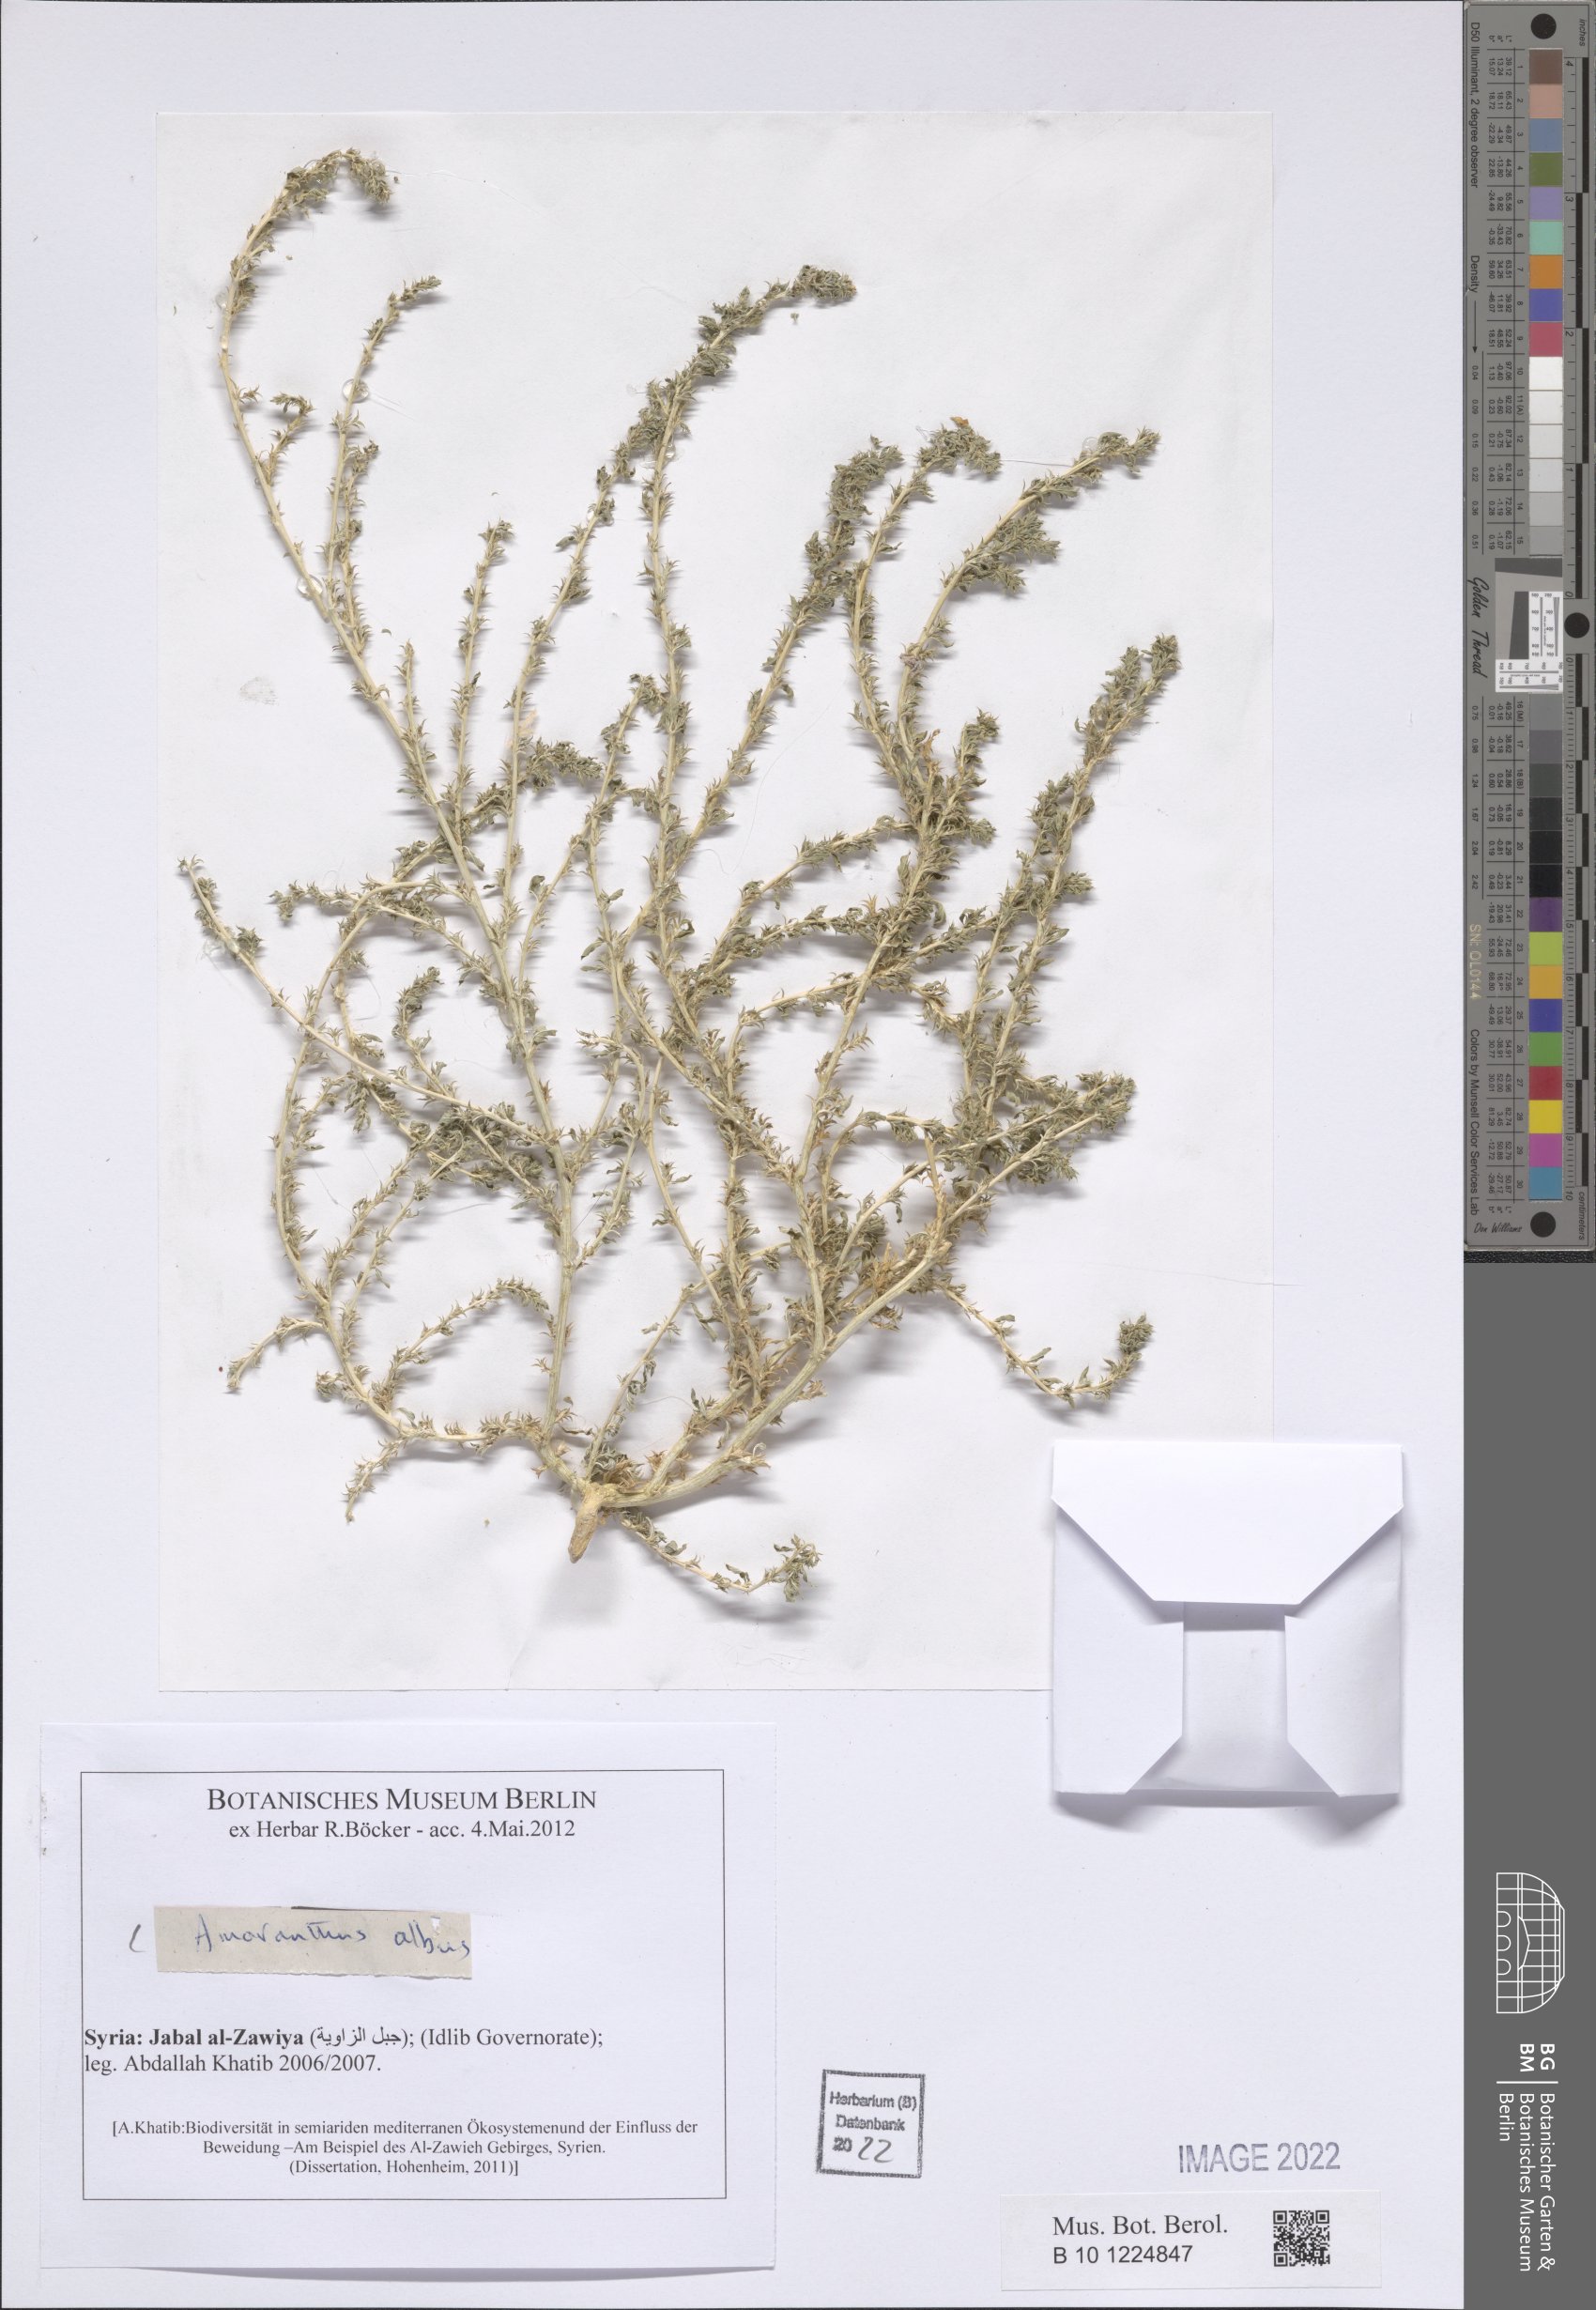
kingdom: Plantae
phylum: Tracheophyta
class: Magnoliopsida
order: Caryophyllales
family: Amaranthaceae
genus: Amaranthus
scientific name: Amaranthus albus
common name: White pigweed
